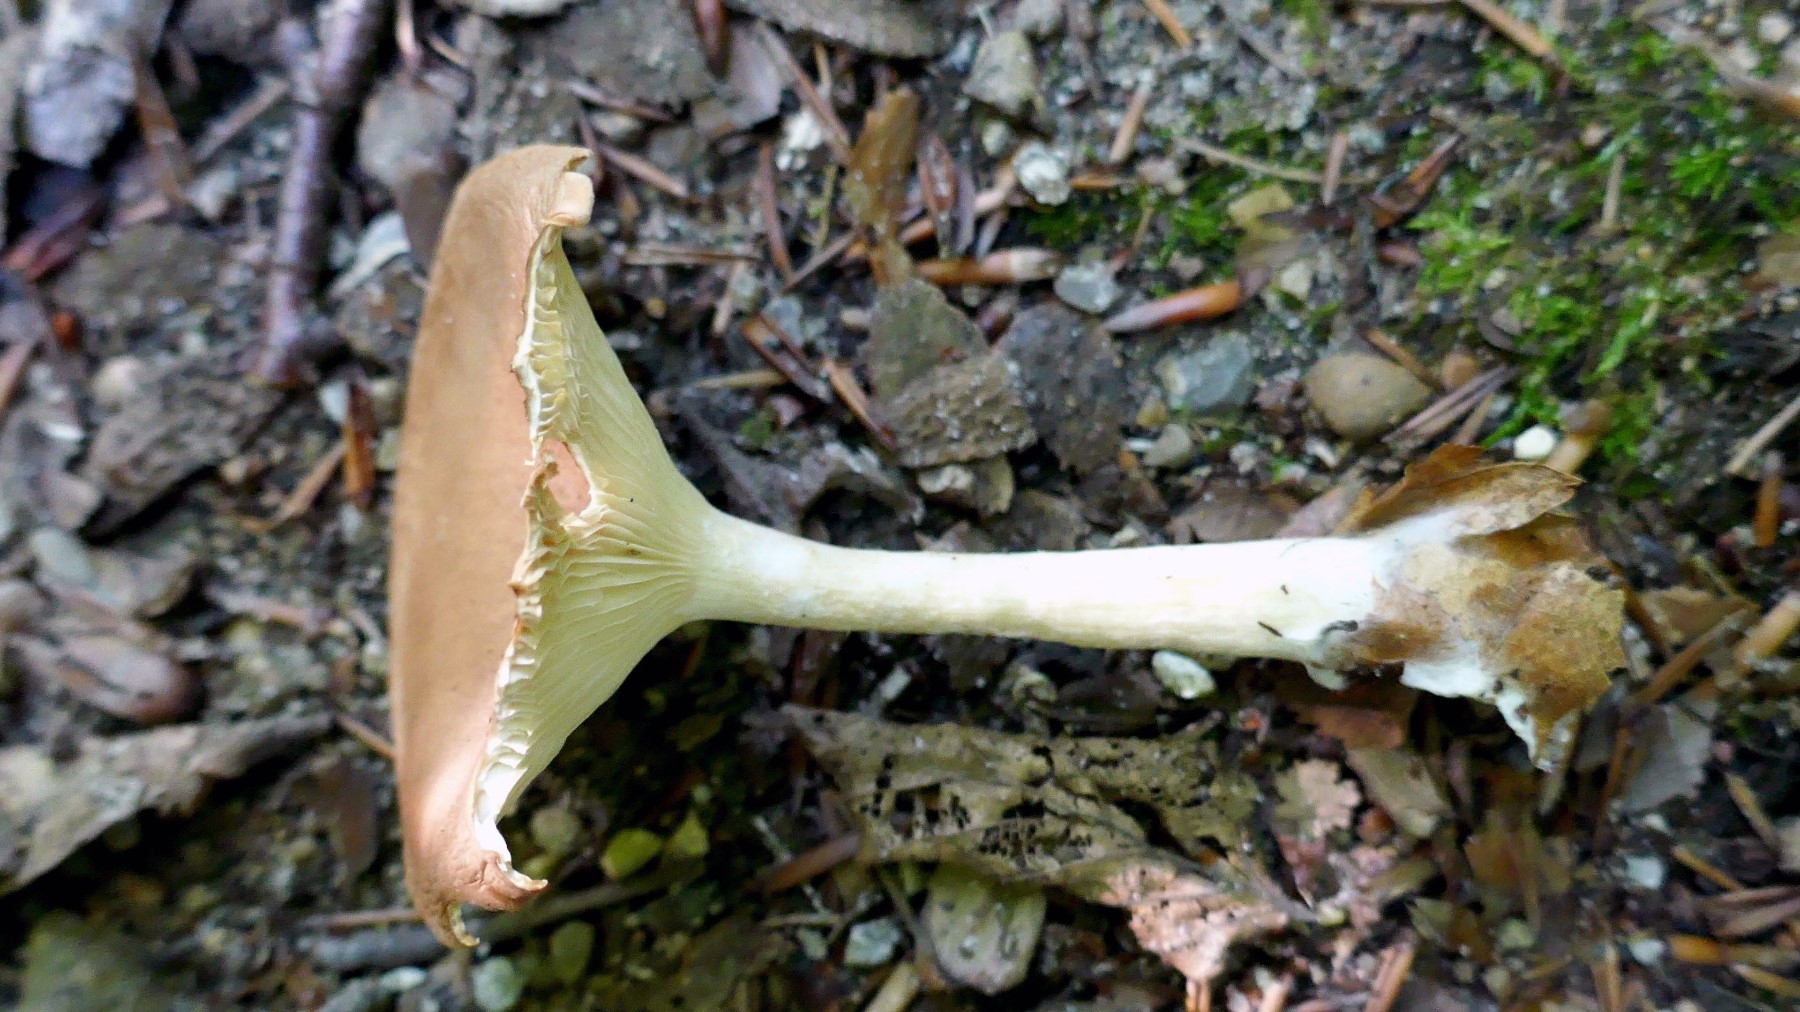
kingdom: Fungi
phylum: Basidiomycota
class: Agaricomycetes
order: Agaricales
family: Tricholomataceae
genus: Infundibulicybe
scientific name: Infundibulicybe gibba
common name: almindelig tragthat
